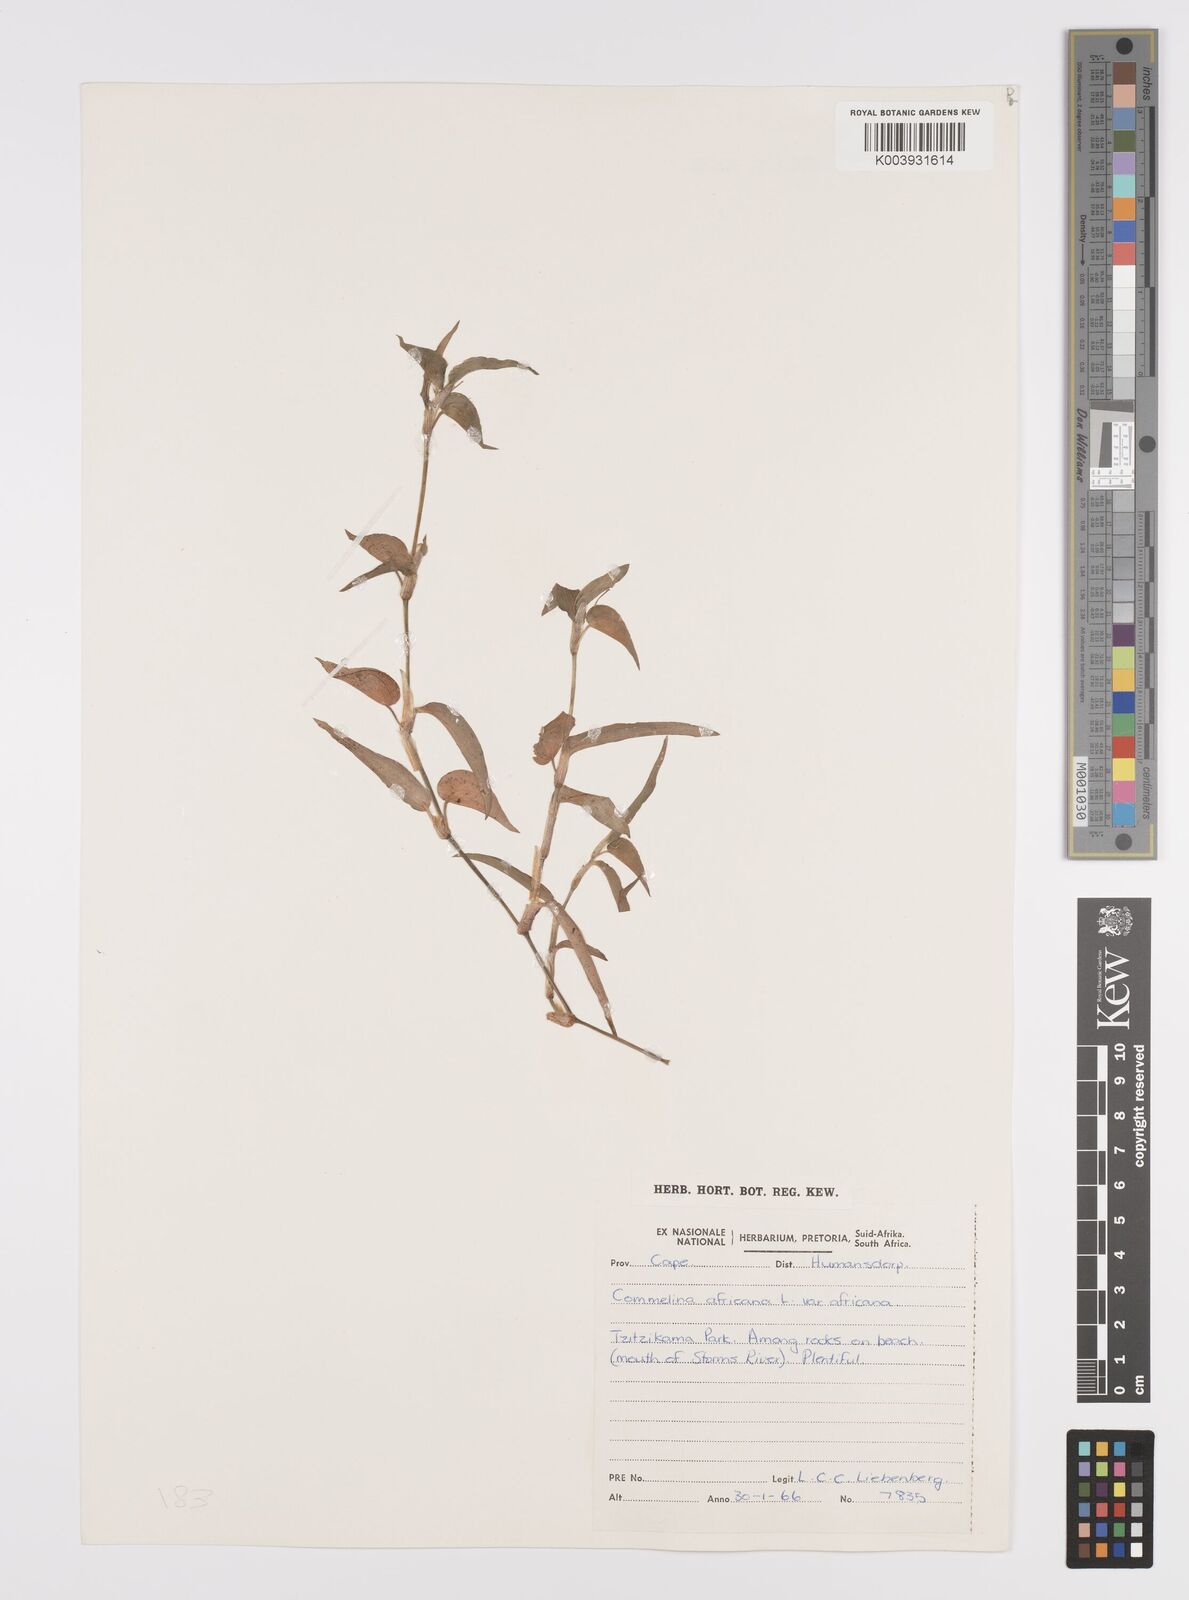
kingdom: Plantae
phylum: Tracheophyta
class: Liliopsida
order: Commelinales
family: Commelinaceae
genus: Commelina
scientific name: Commelina africana
